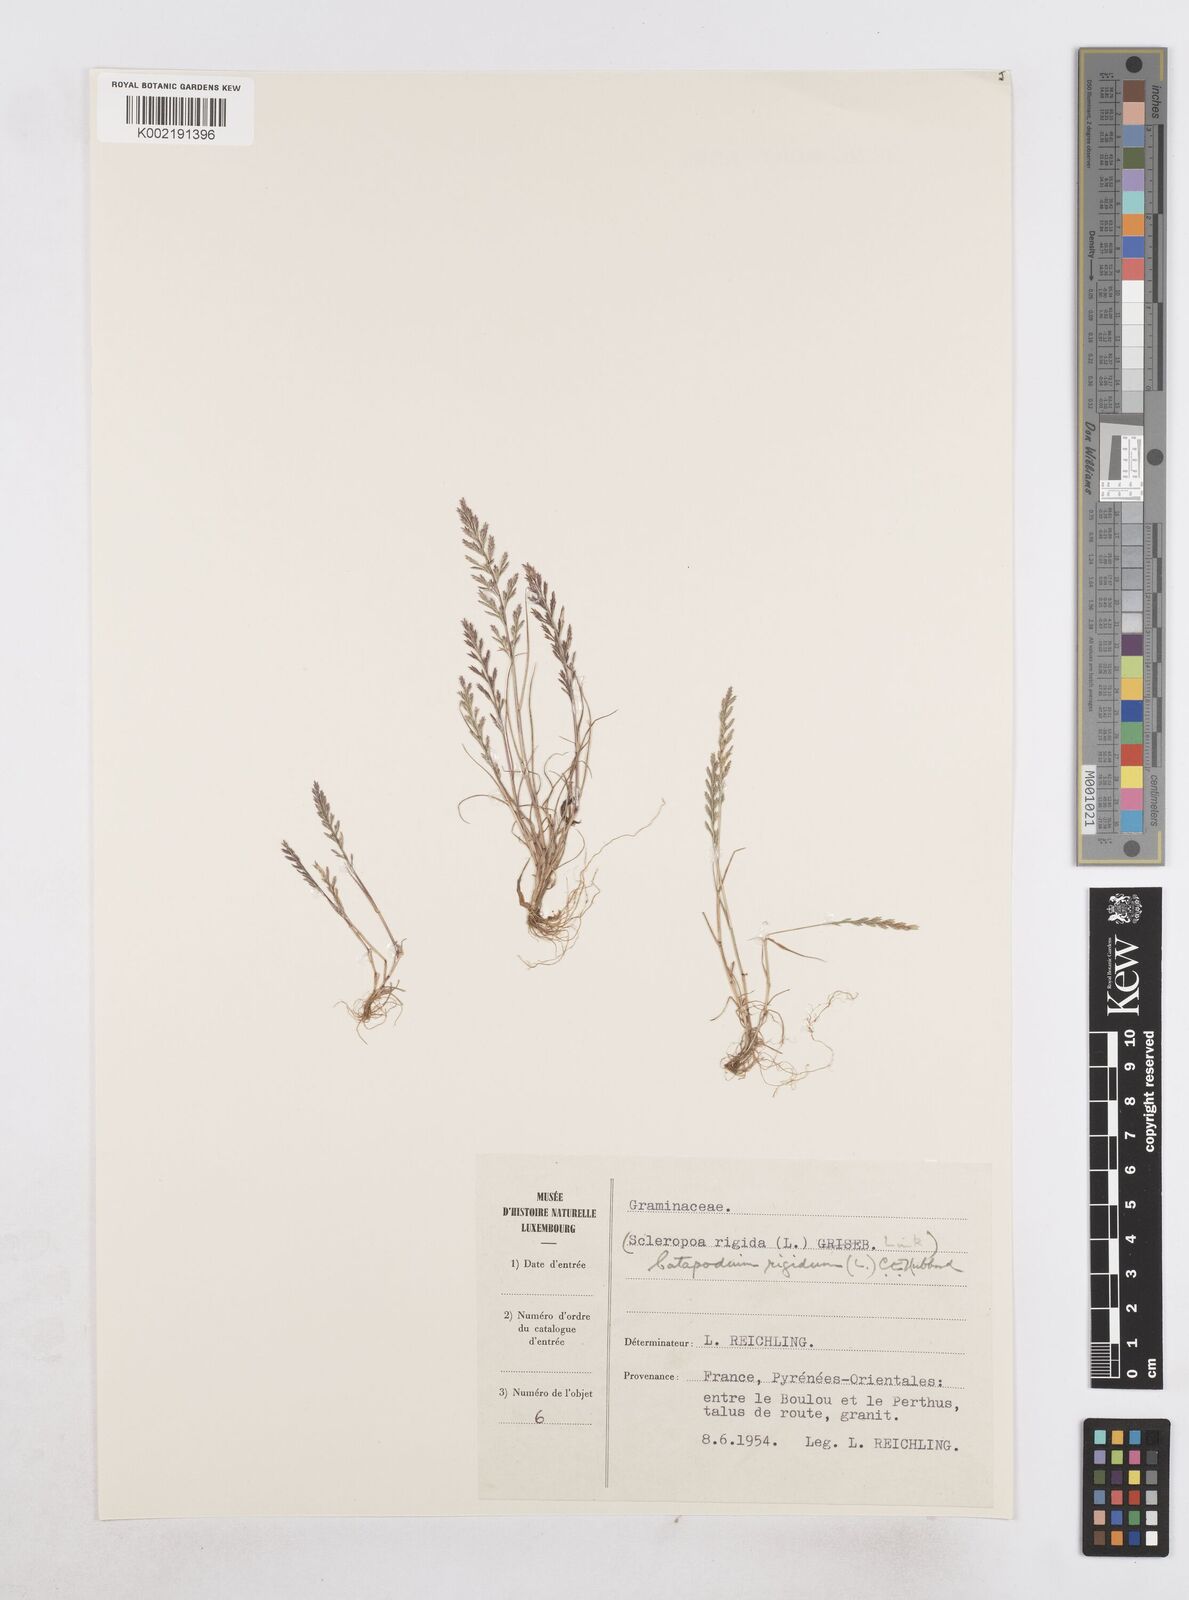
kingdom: Plantae
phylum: Tracheophyta
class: Liliopsida
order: Poales
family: Poaceae
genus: Catapodium
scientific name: Catapodium rigidum
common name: Fern-grass
